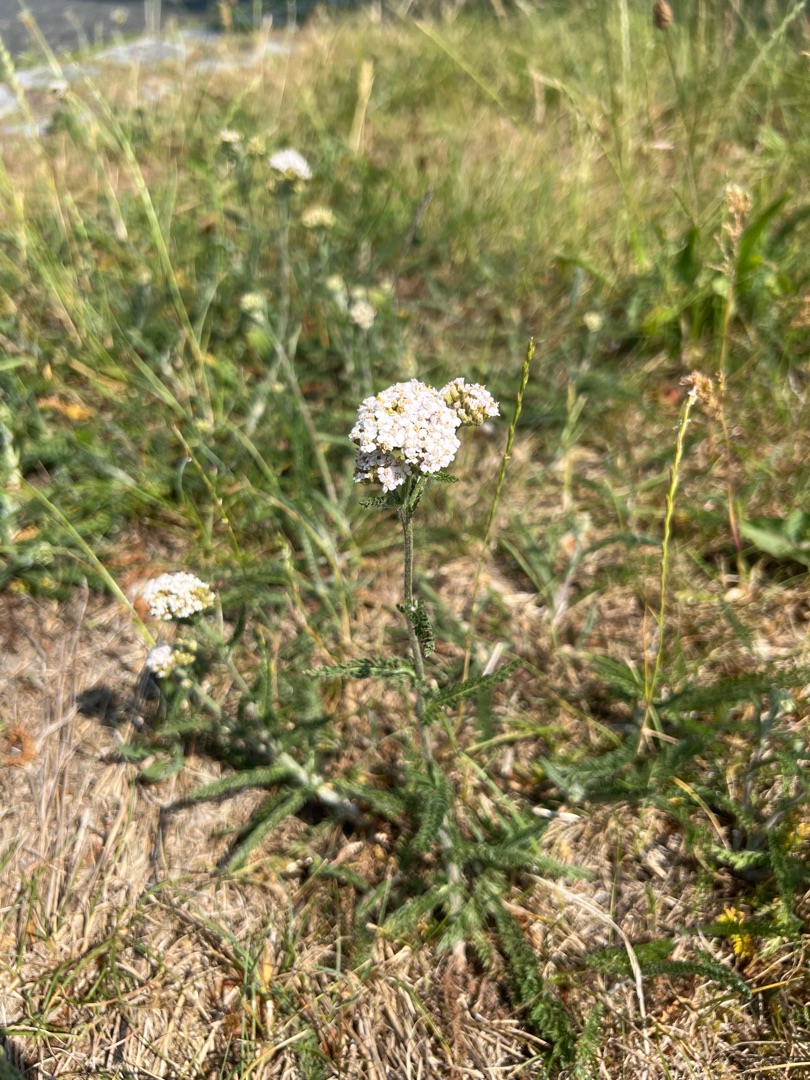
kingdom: Plantae
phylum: Tracheophyta
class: Magnoliopsida
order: Asterales
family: Asteraceae
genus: Achillea
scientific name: Achillea millefolium
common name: Almindelig røllike
